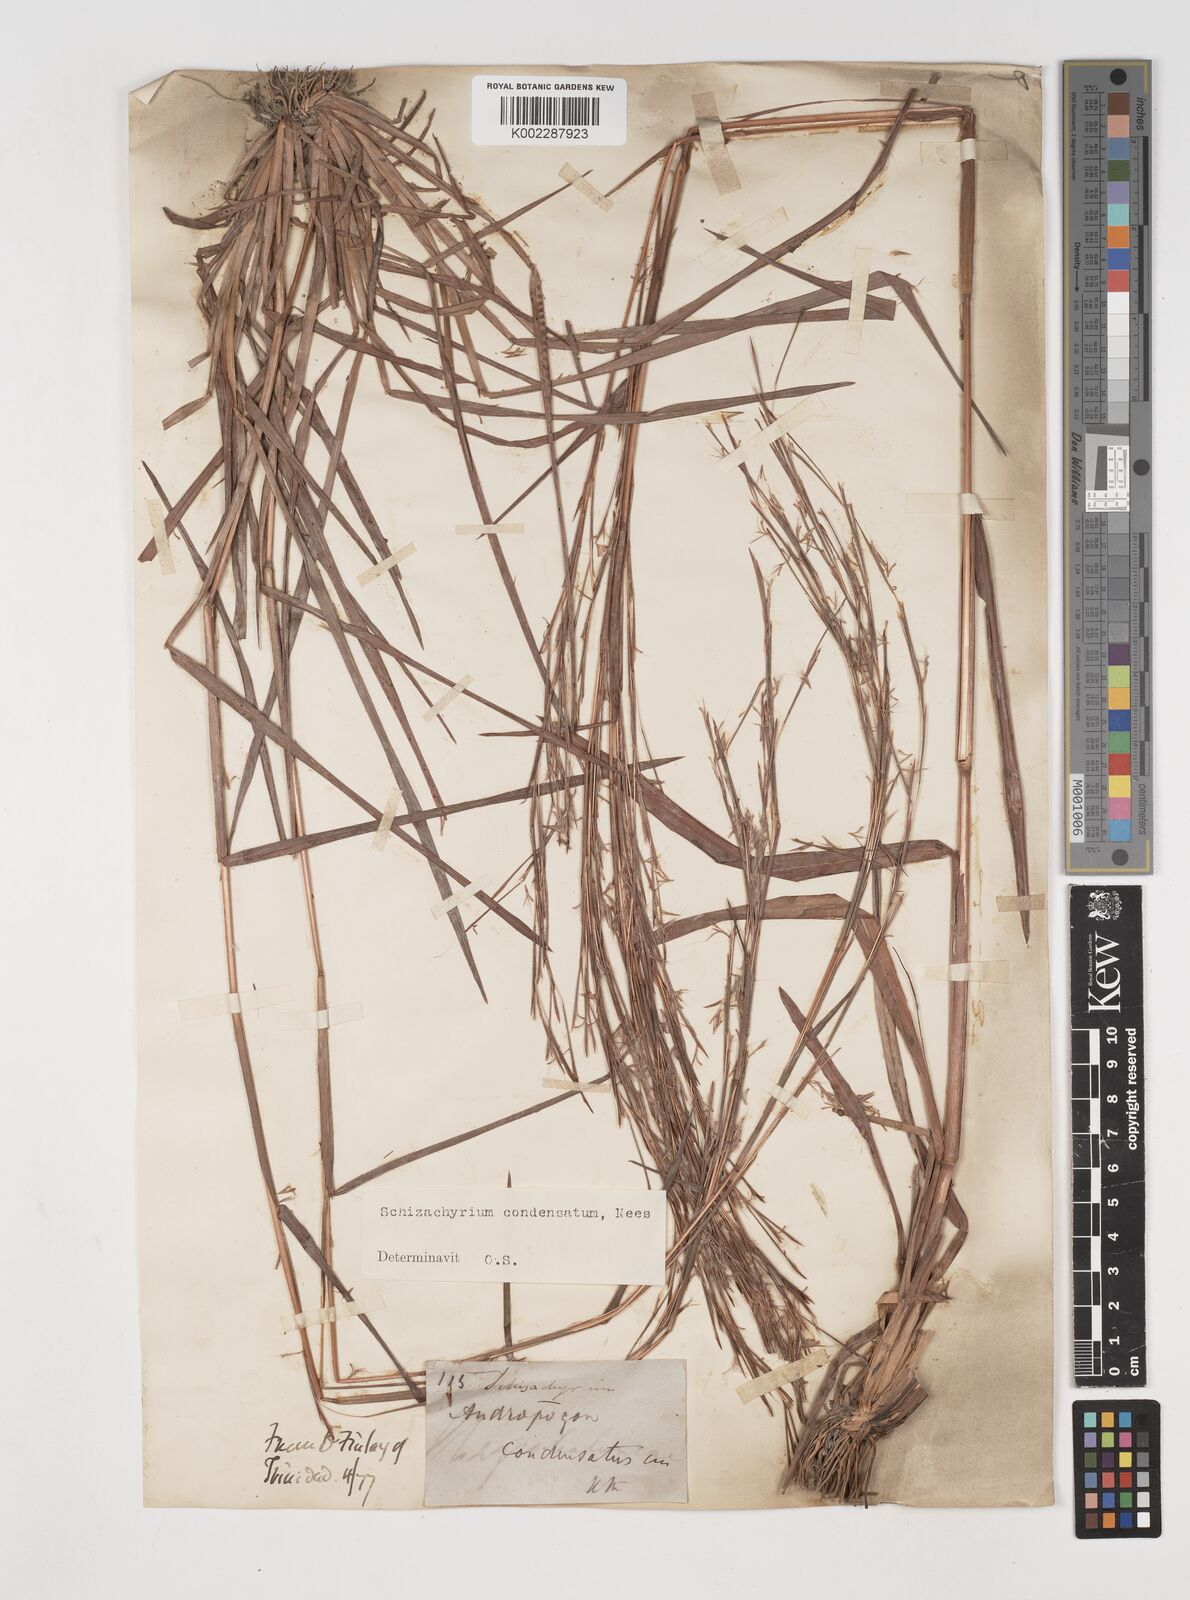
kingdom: Plantae
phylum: Tracheophyta
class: Liliopsida
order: Poales
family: Poaceae
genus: Schizachyrium
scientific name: Schizachyrium condensatum
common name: Bush beardgrass
